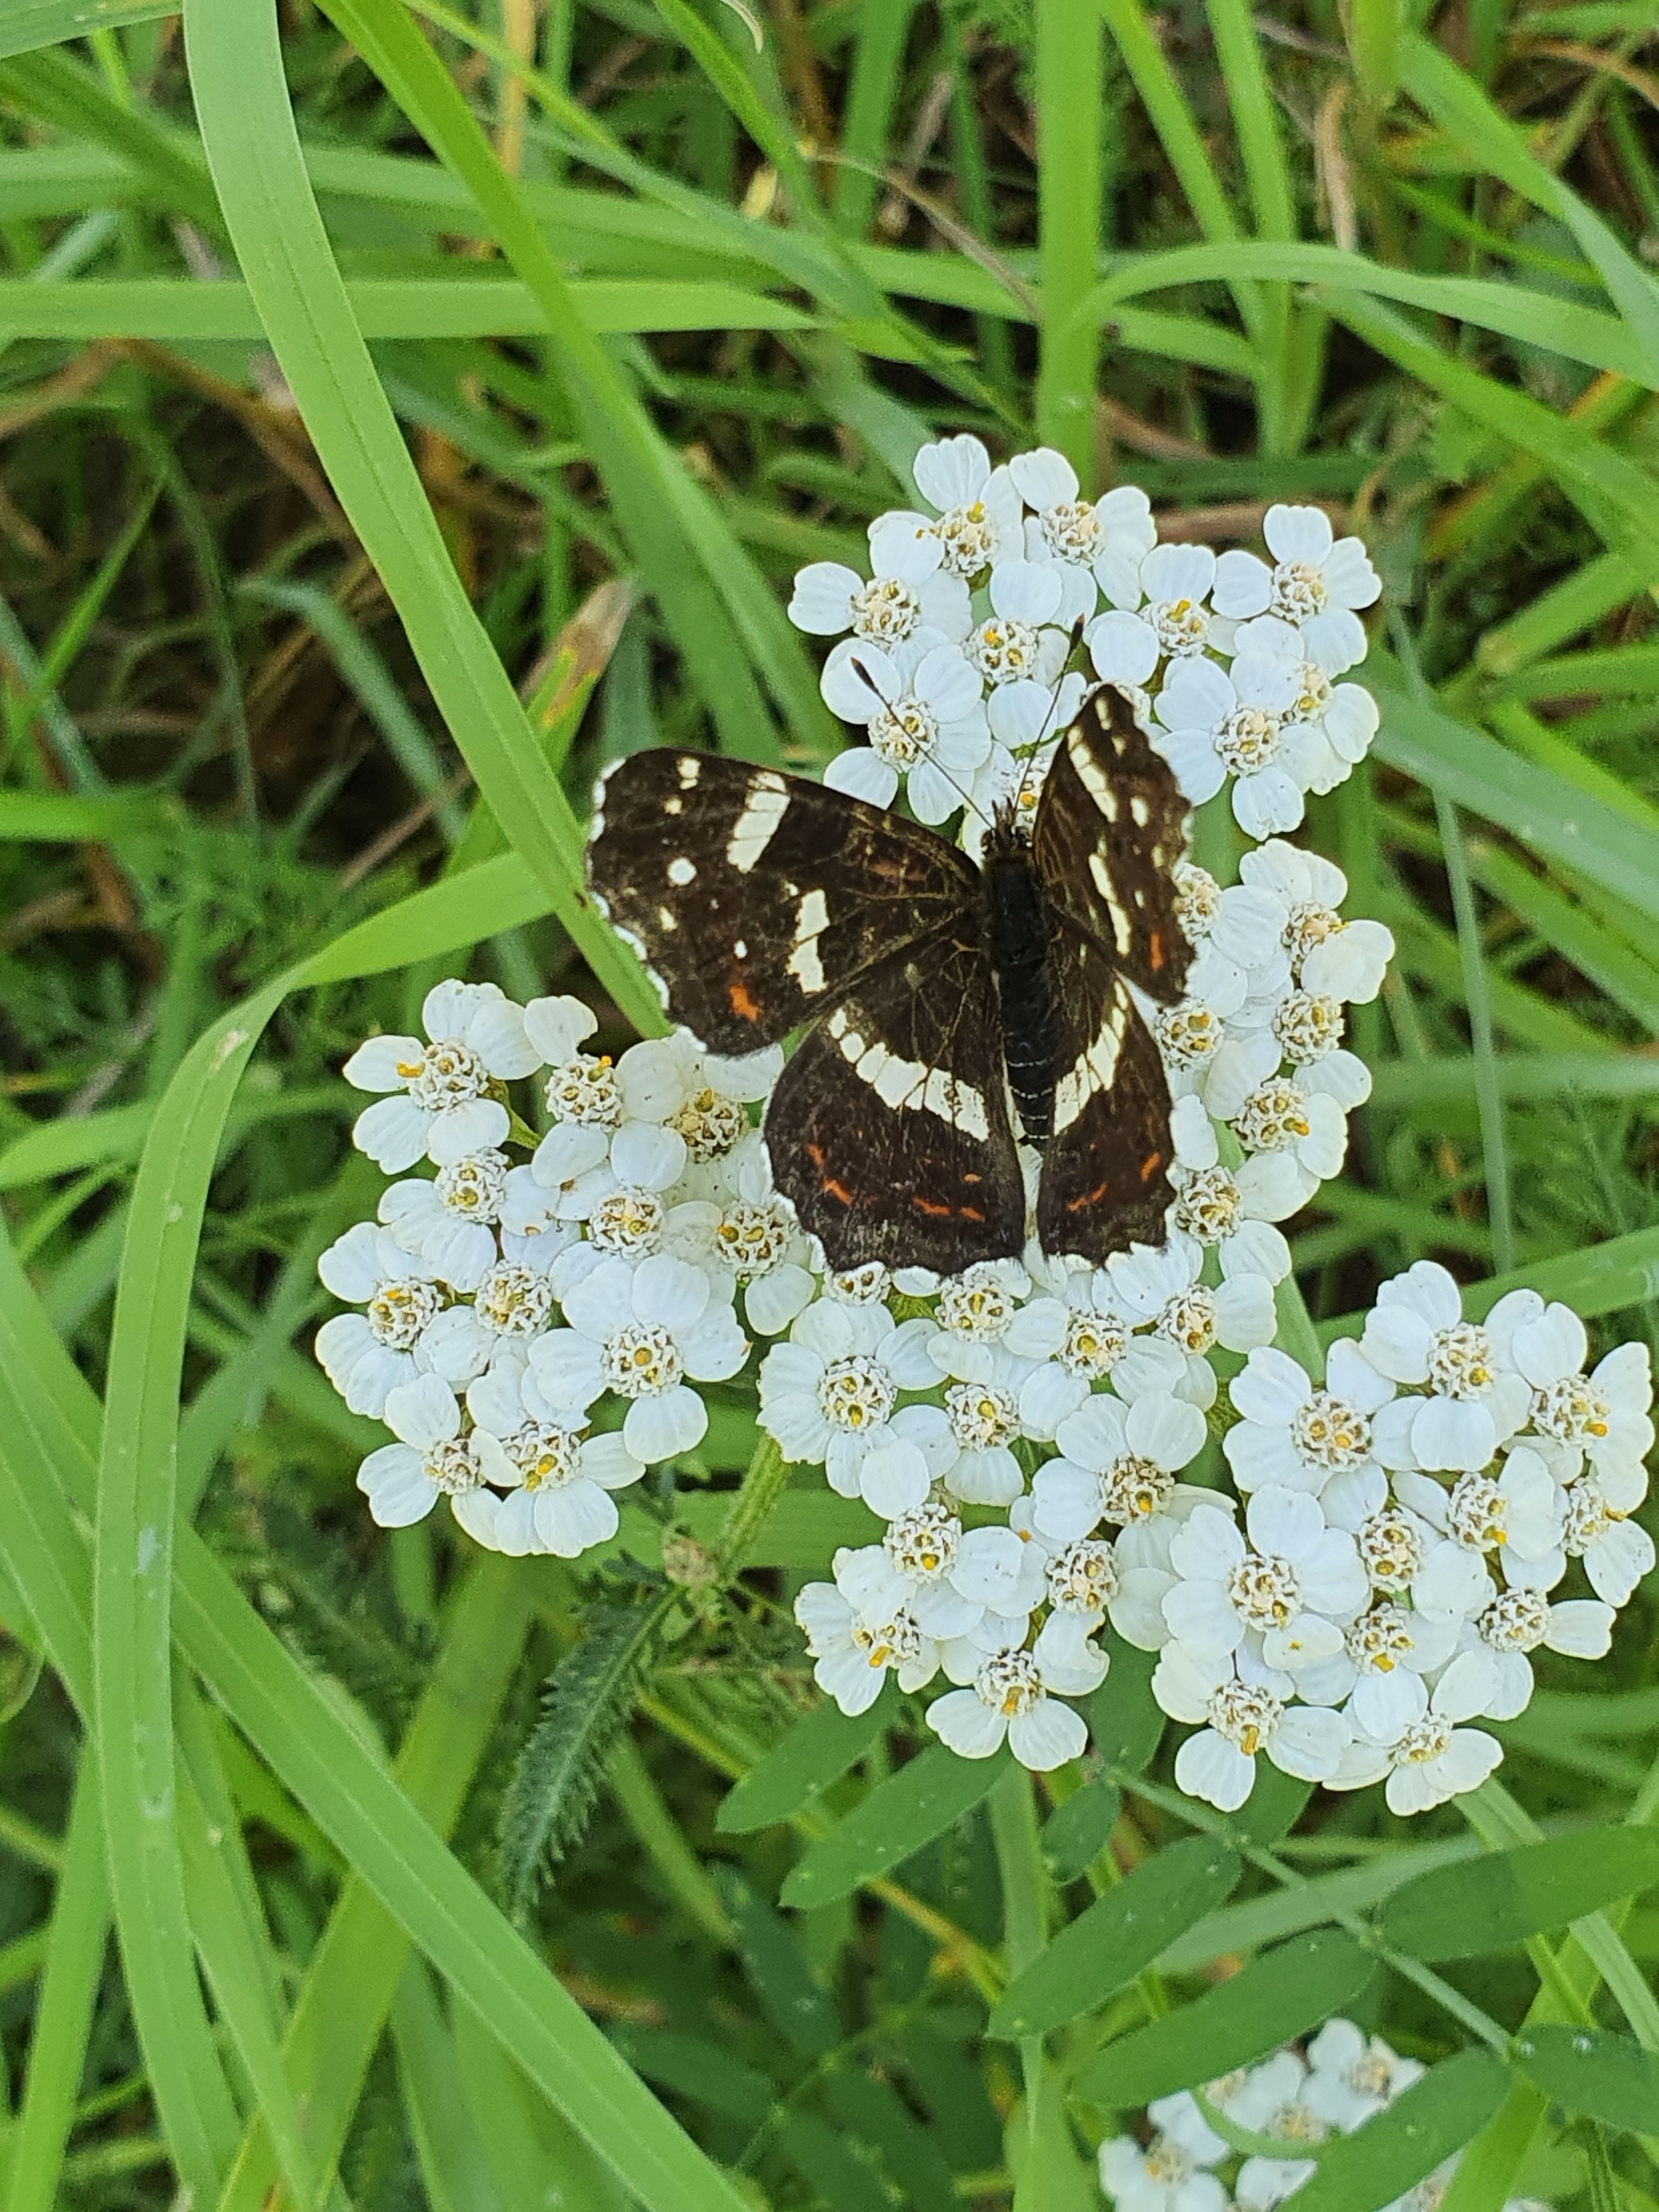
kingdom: Animalia
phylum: Arthropoda
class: Insecta
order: Lepidoptera
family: Nymphalidae
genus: Araschnia
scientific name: Araschnia levana
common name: Nældesommerfugl
